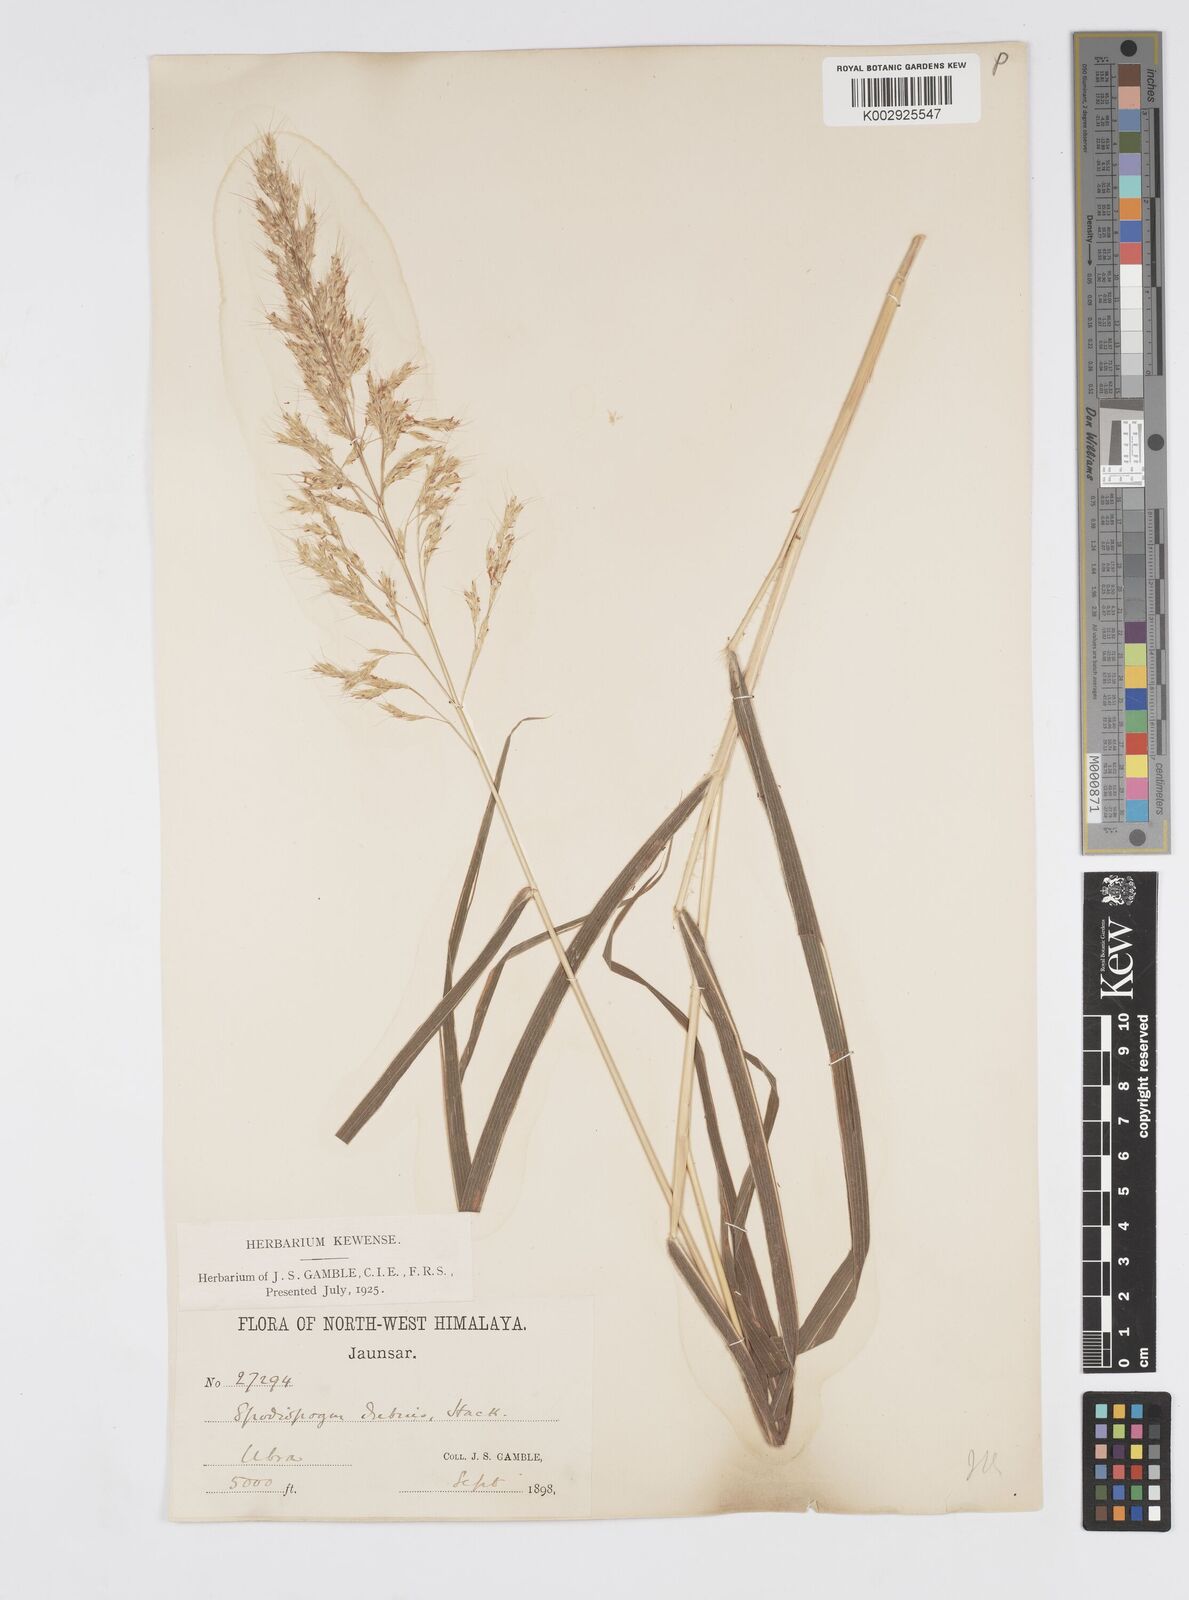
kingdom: Plantae
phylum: Tracheophyta
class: Liliopsida
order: Poales
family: Poaceae
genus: Spodiopogon
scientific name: Spodiopogon cotulifer
